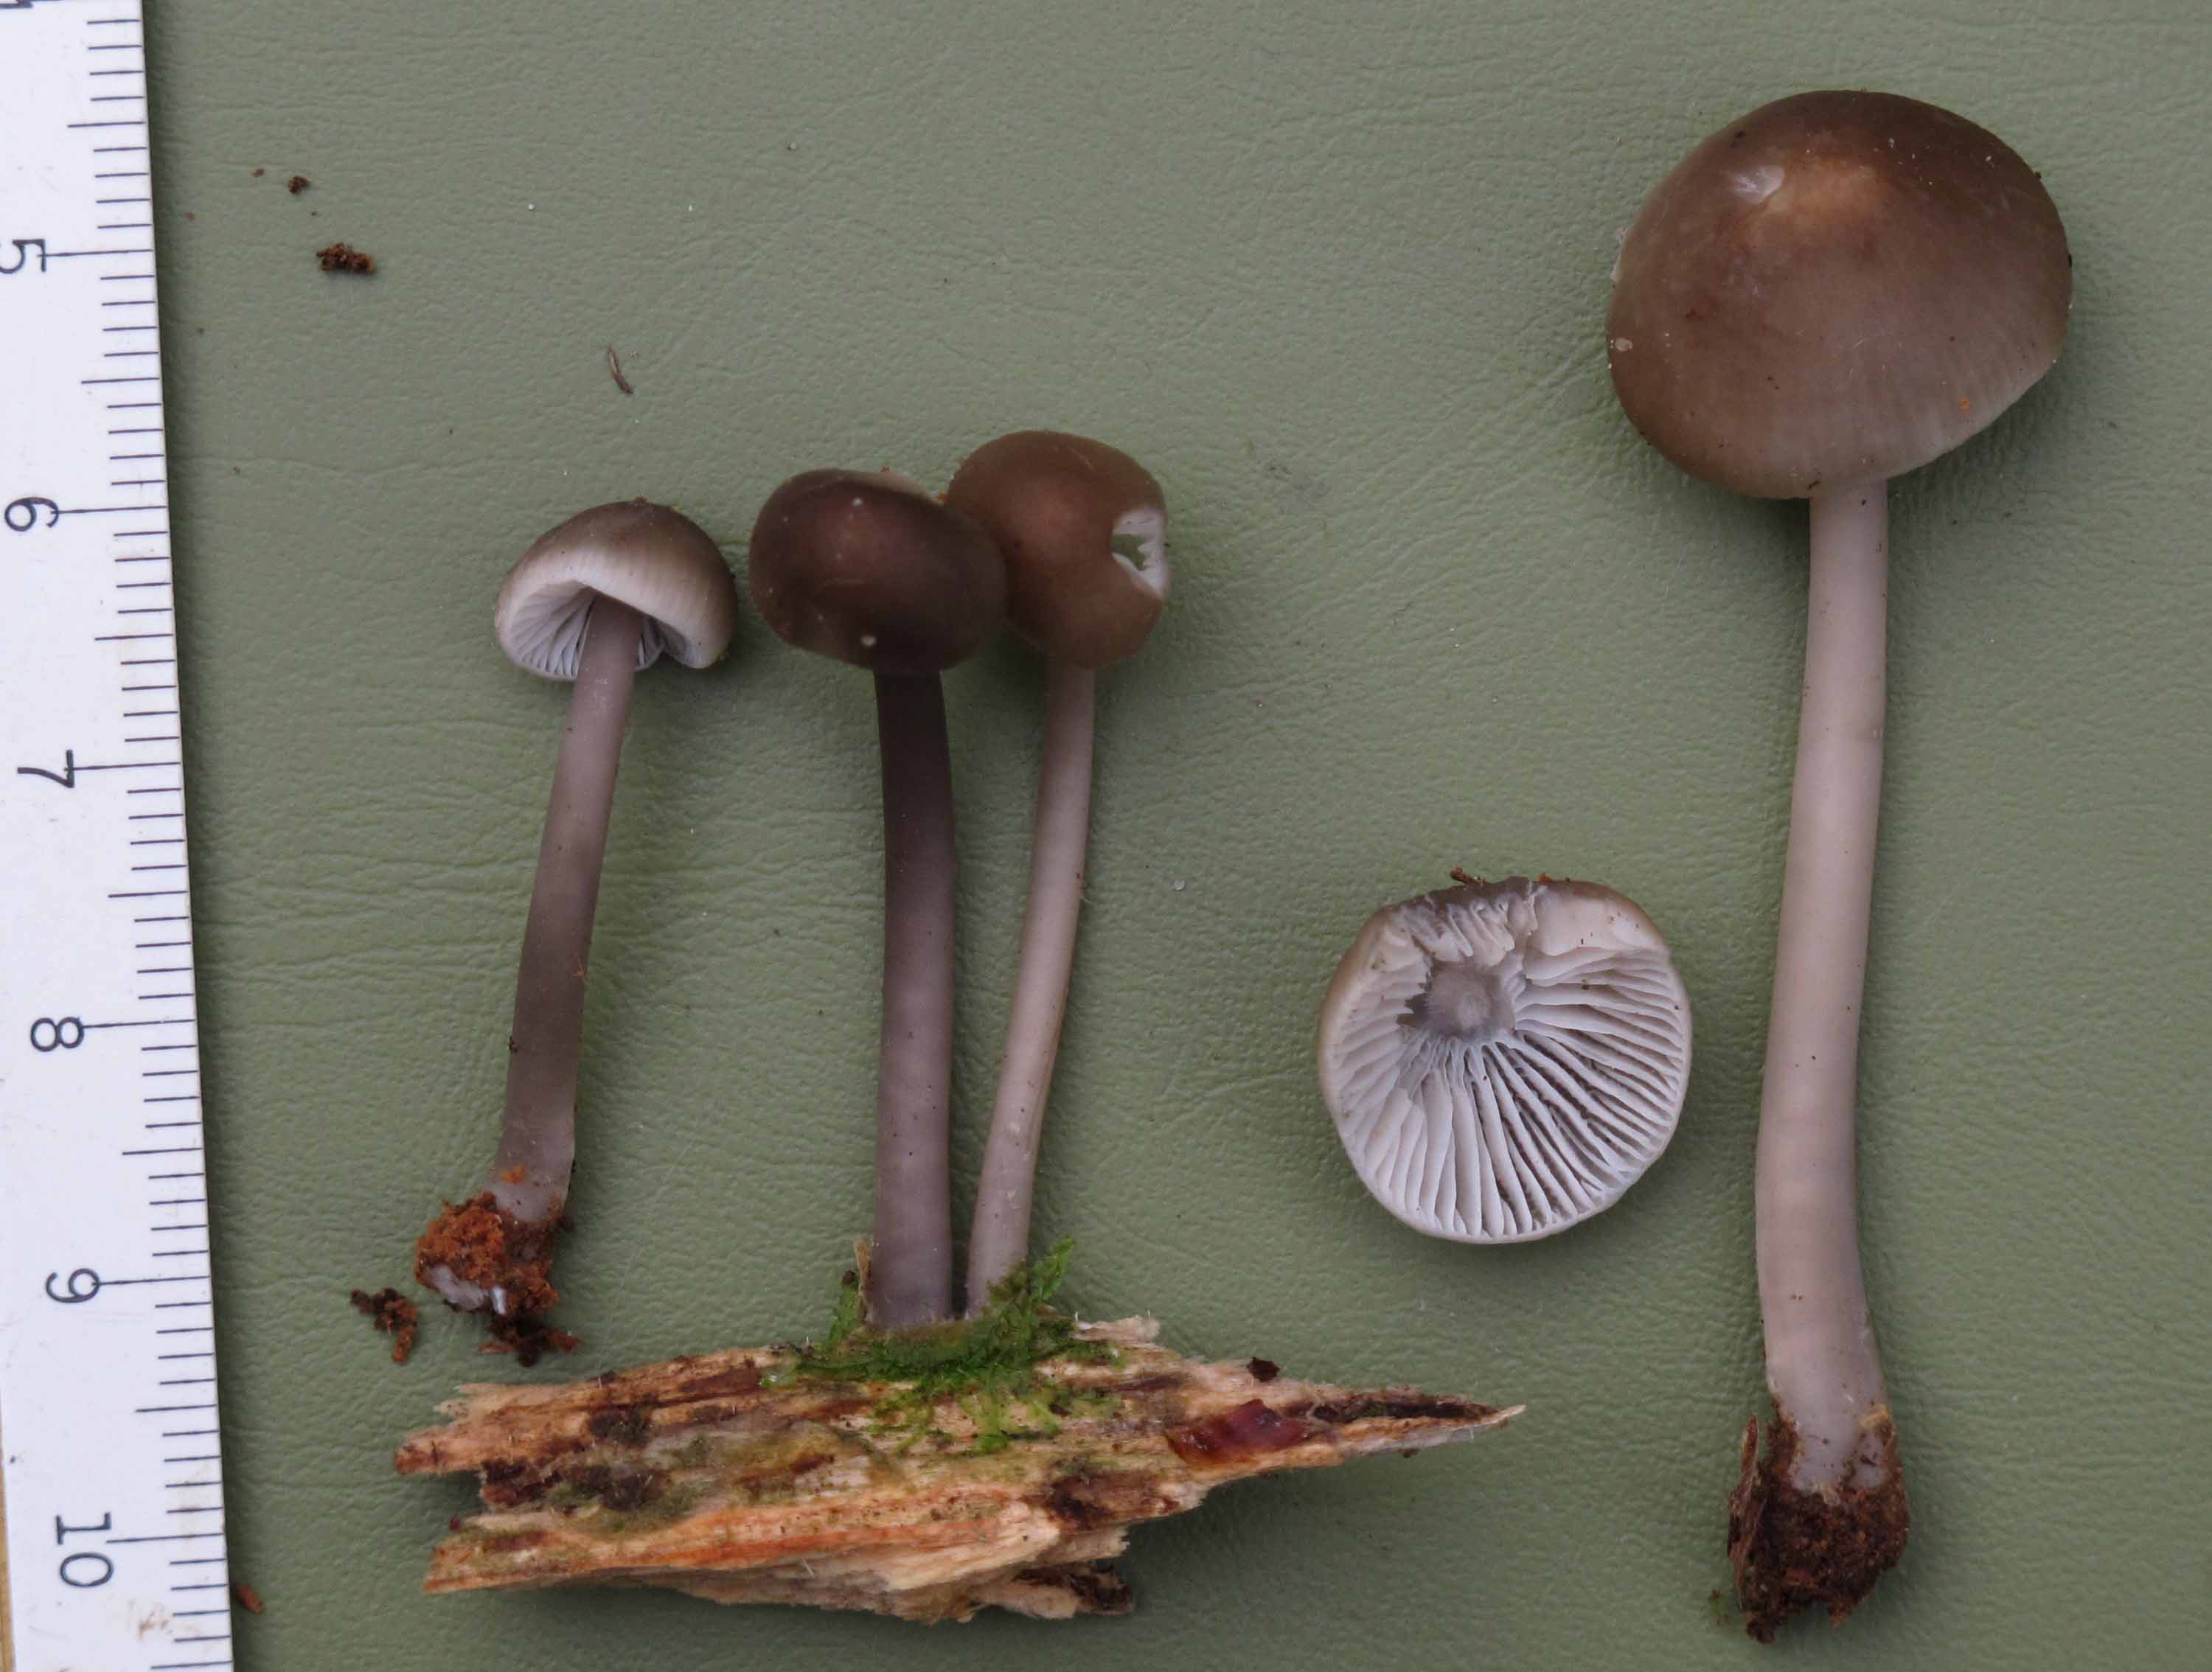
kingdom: Fungi
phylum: Basidiomycota
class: Agaricomycetes
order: Agaricales
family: Mycenaceae
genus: Mycena
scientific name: Mycena galericulata
